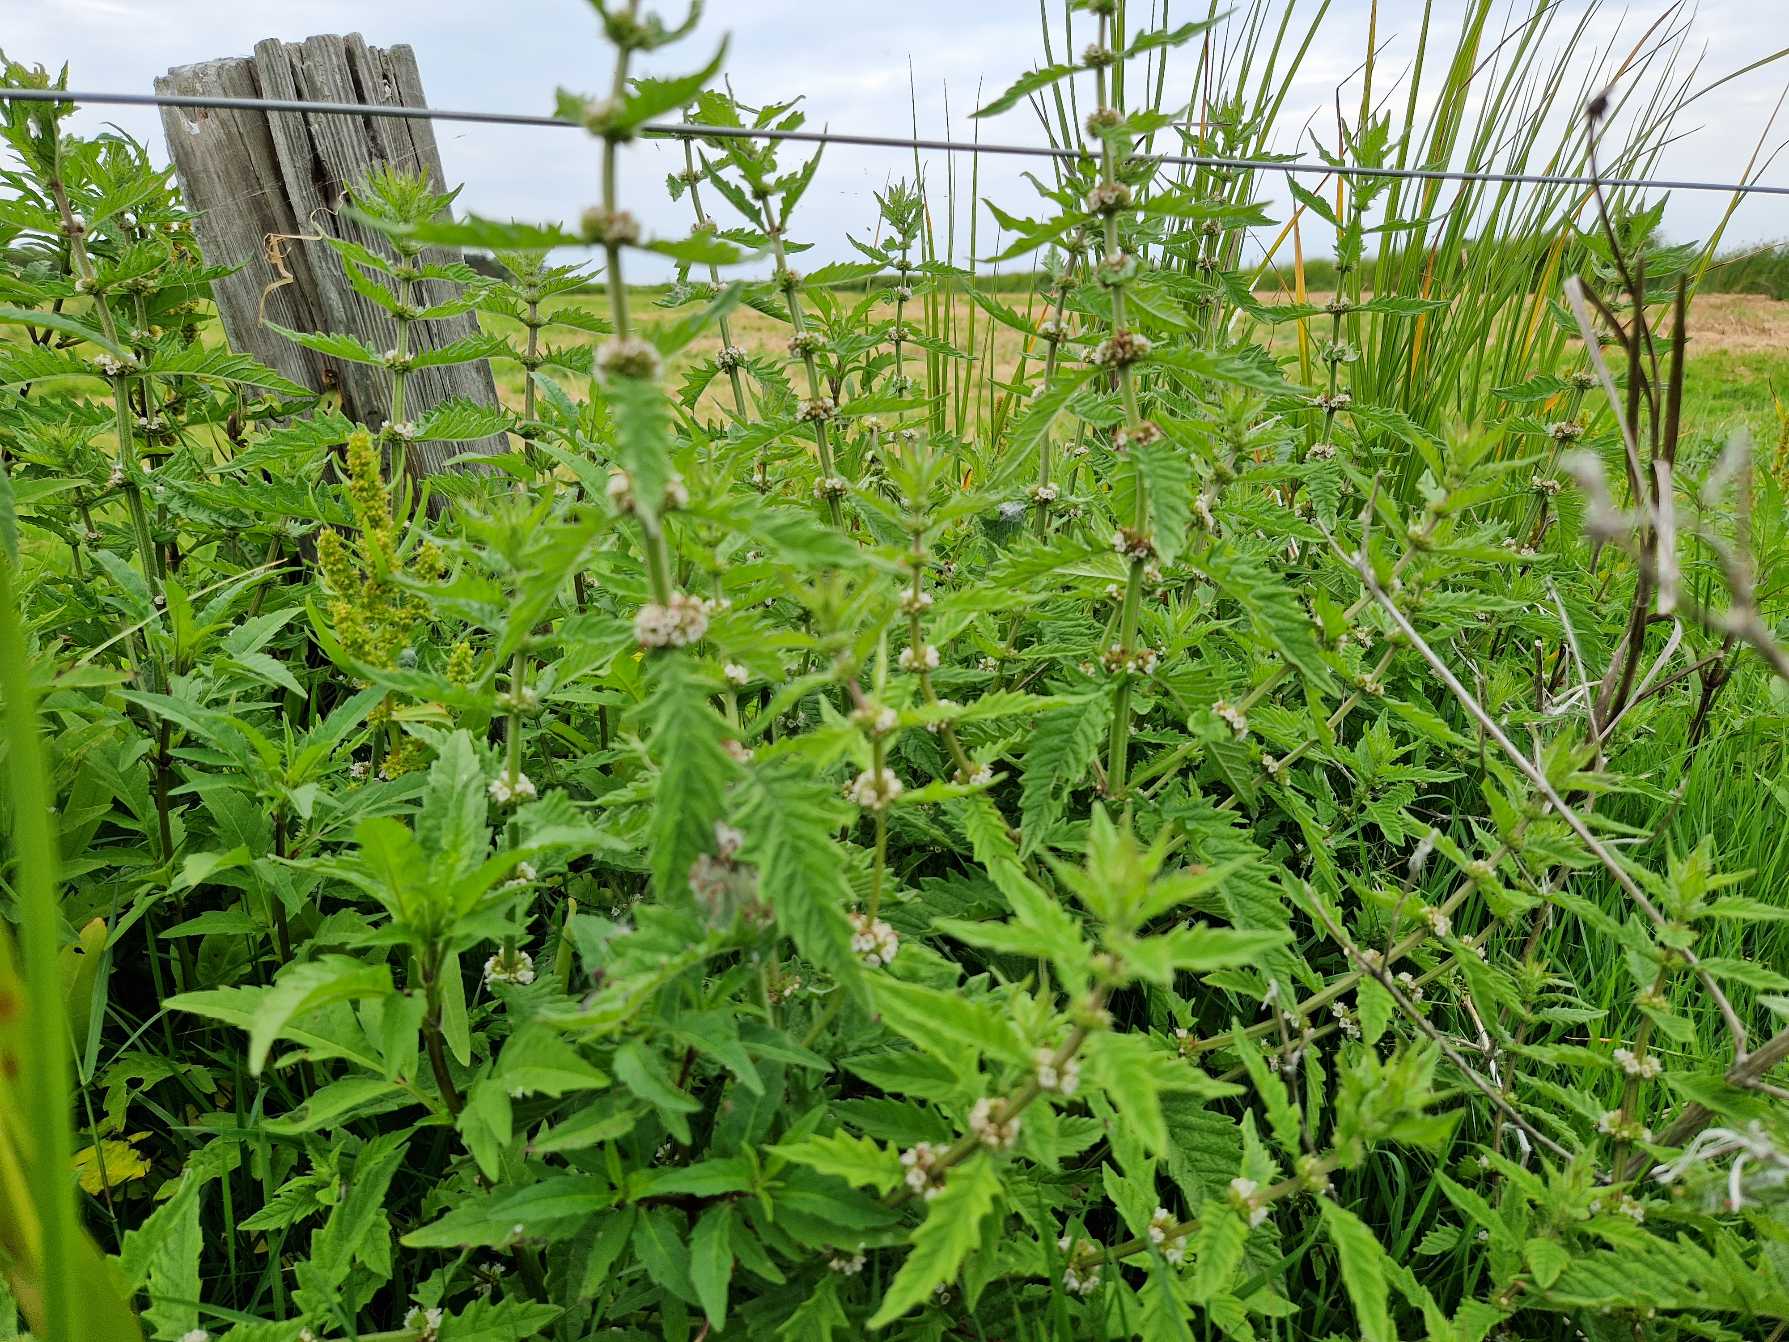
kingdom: Plantae
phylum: Tracheophyta
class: Magnoliopsida
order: Lamiales
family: Lamiaceae
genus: Lycopus
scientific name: Lycopus europaeus
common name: Sværtevæld
